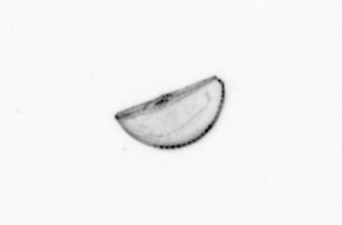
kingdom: Chromista
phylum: Ochrophyta
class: Bacillariophyceae
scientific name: Bacillariophyceae
